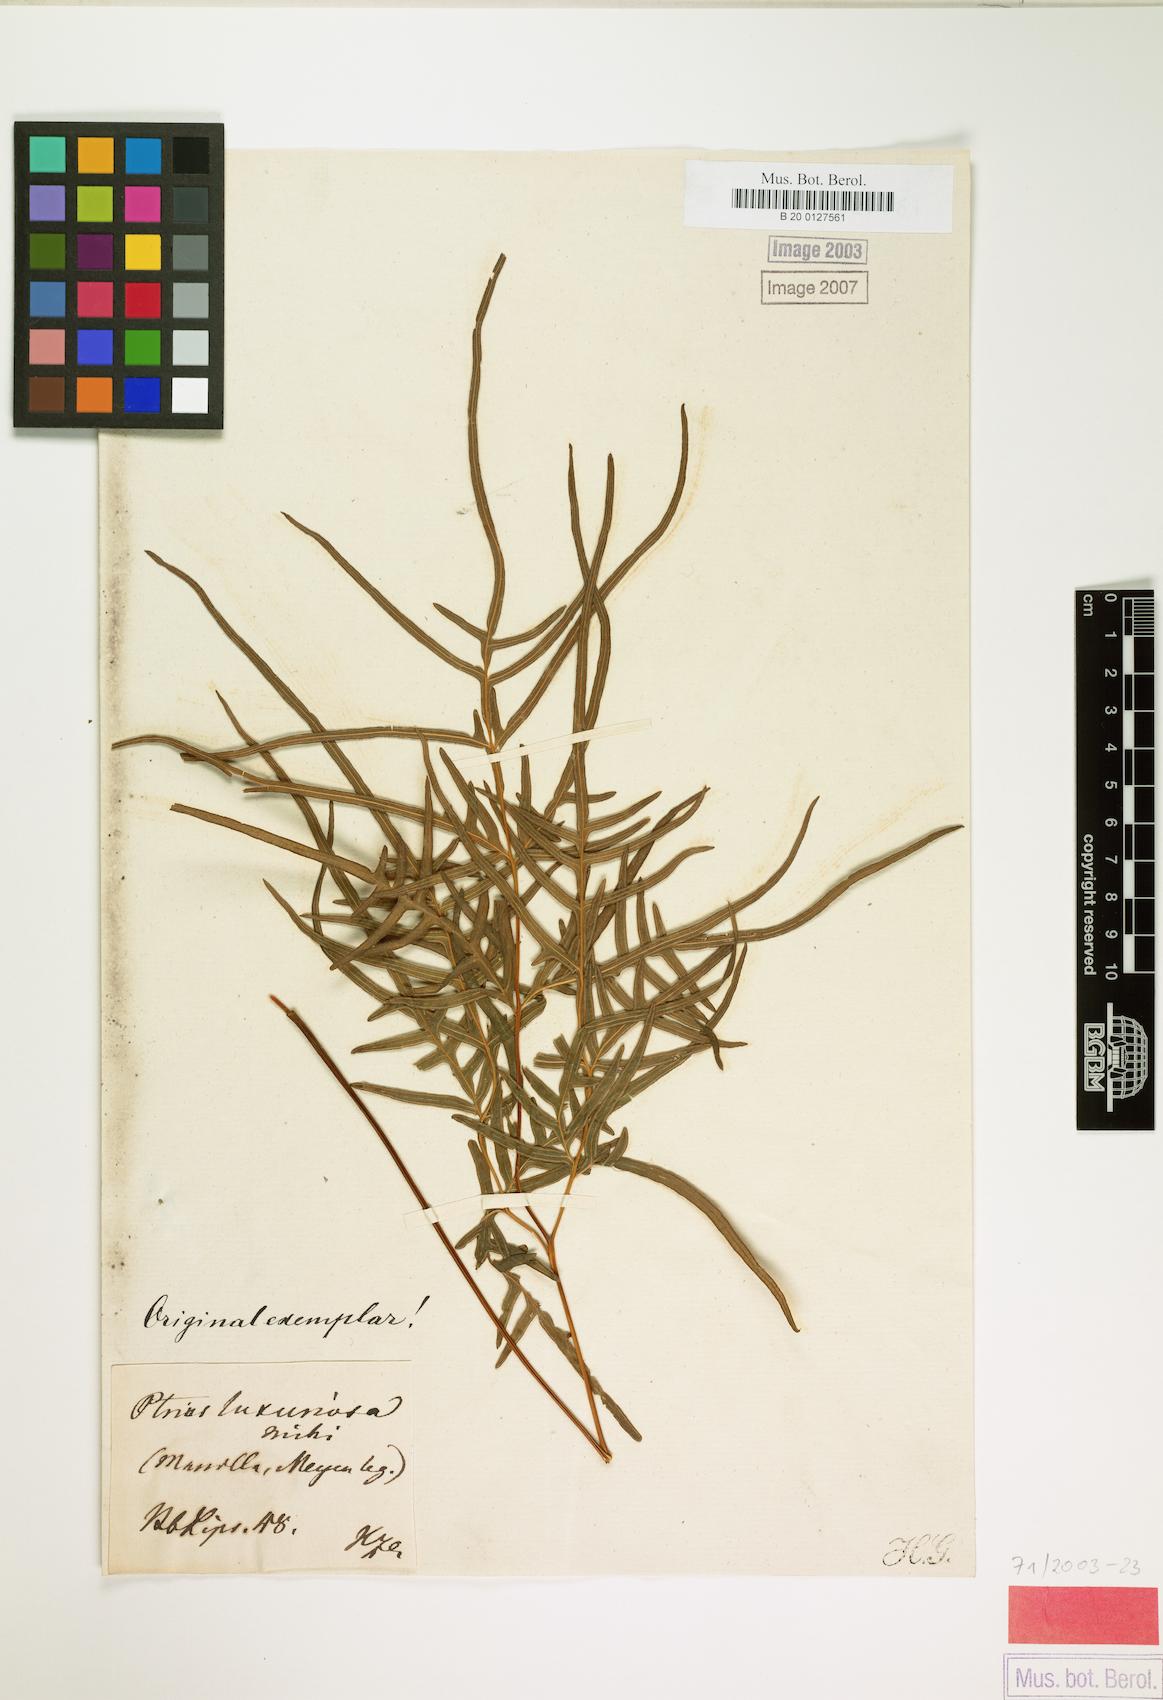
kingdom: Plantae
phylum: Tracheophyta
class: Polypodiopsida
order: Polypodiales
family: Pteridaceae
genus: Pteris
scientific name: Pteris luxuriosa
